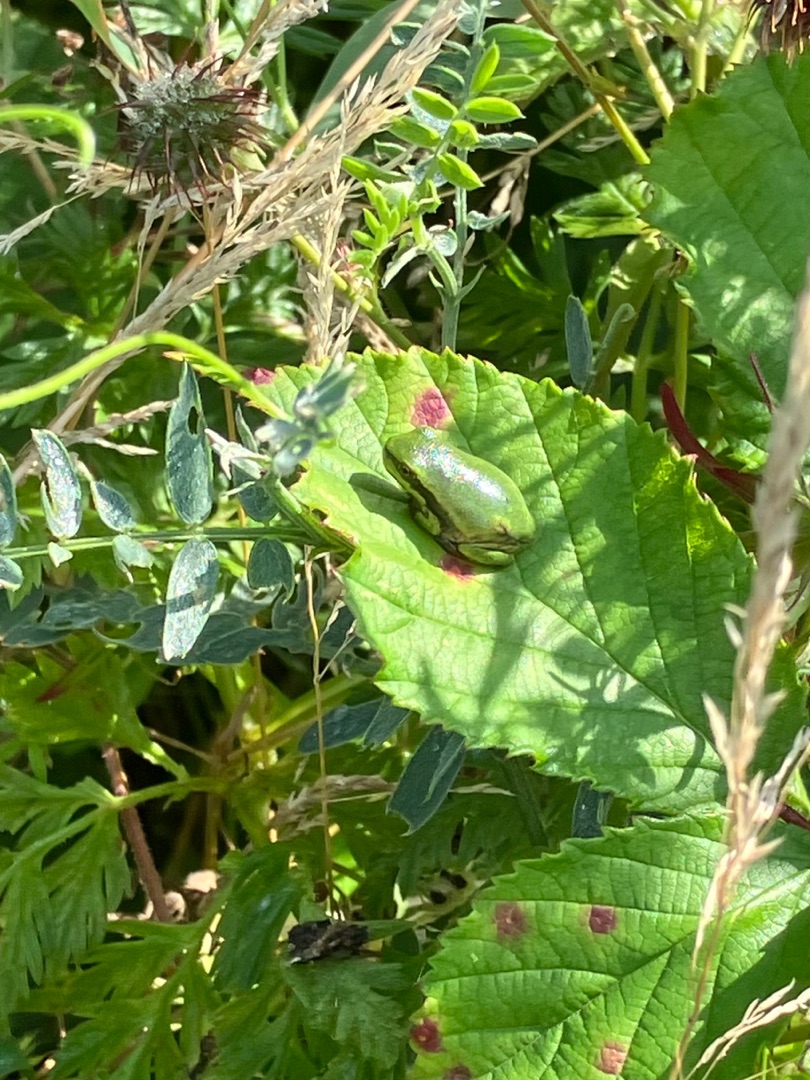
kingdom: Animalia
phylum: Chordata
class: Amphibia
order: Anura
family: Hylidae
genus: Hyla
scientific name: Hyla arborea
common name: Løvfrø
